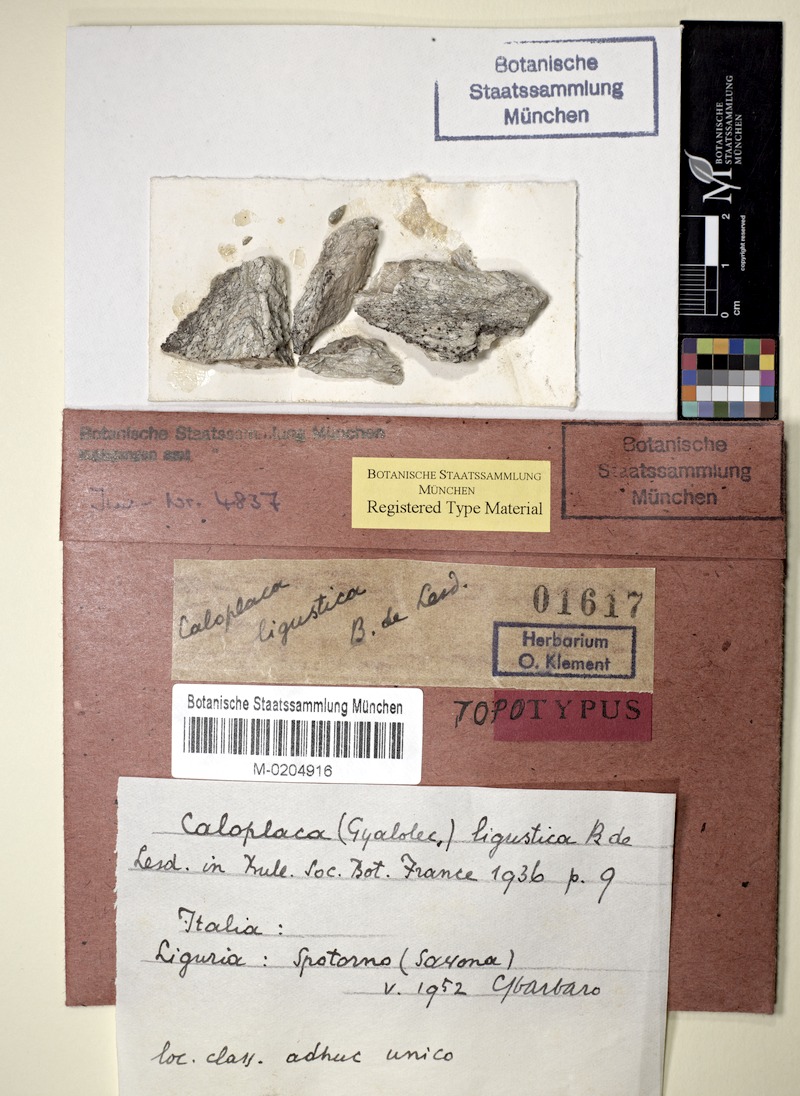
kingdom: Fungi
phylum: Ascomycota
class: Lecanoromycetes
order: Teloschistales
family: Teloschistaceae
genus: Caloplaca
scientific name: Caloplaca ligustica
